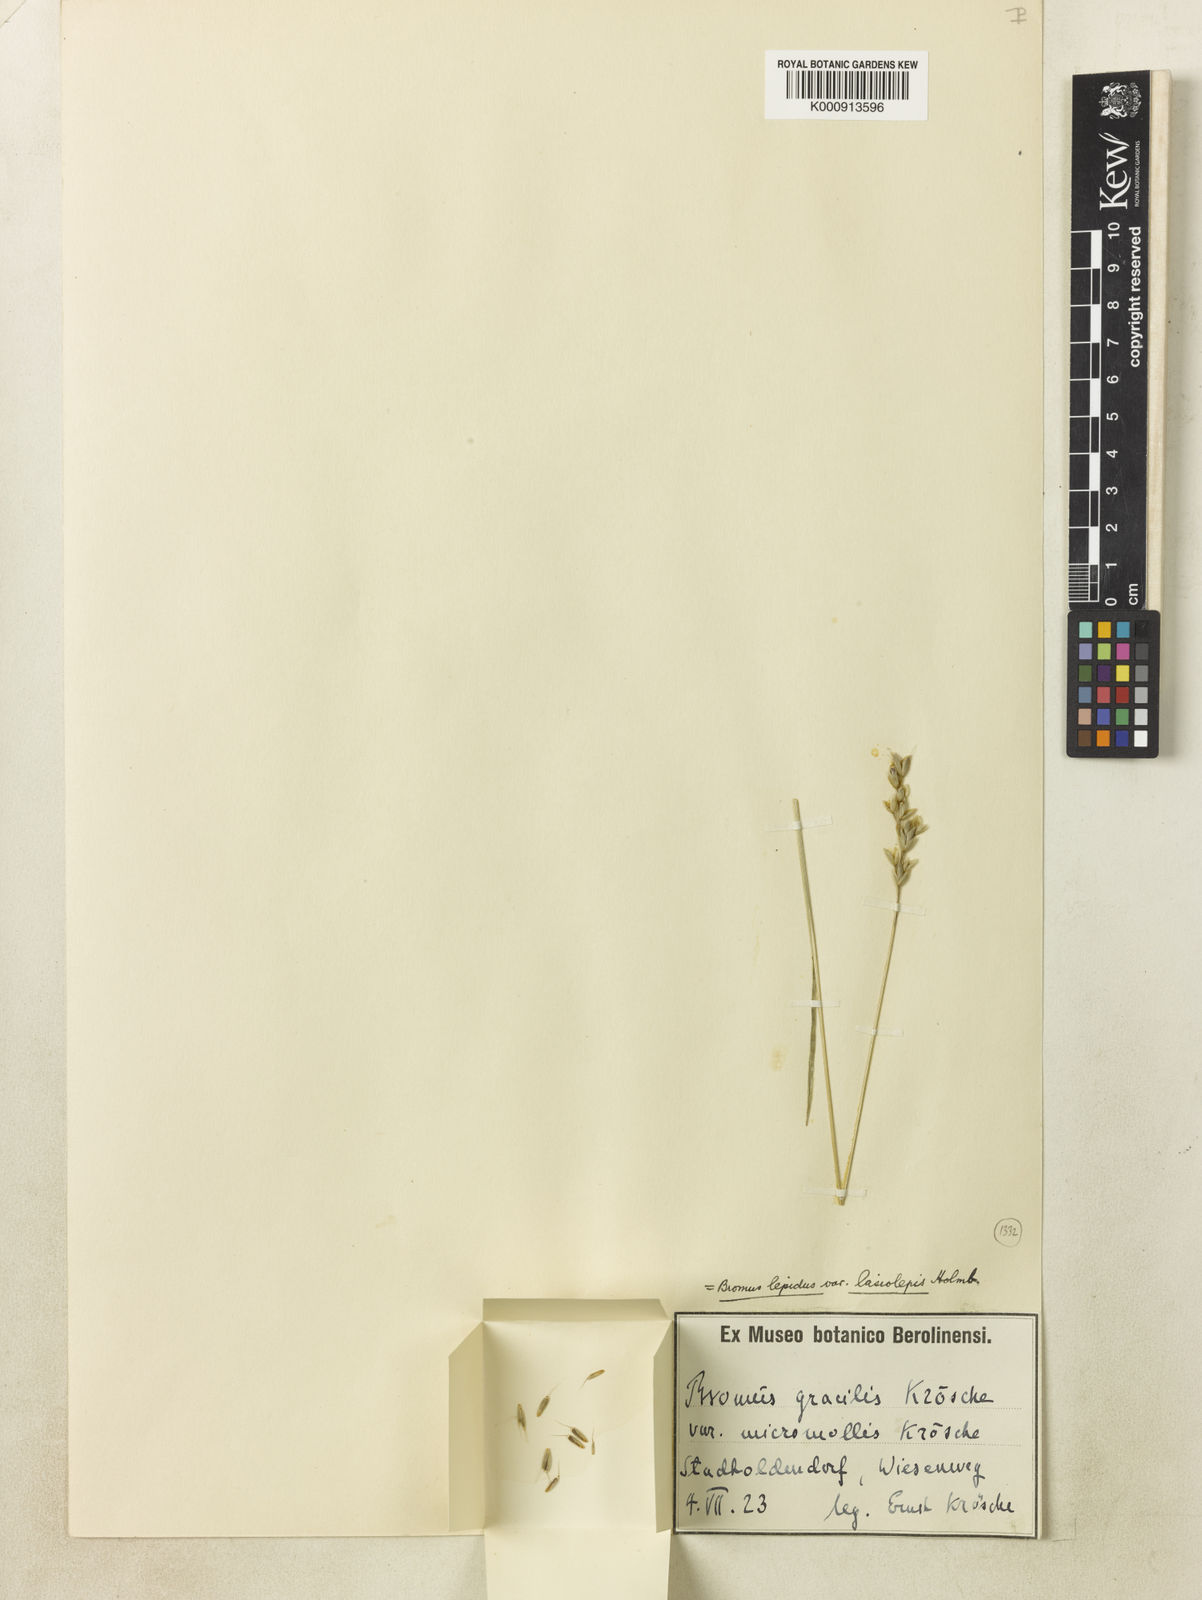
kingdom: Plantae
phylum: Tracheophyta
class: Liliopsida
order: Poales
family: Poaceae
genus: Bromus
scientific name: Bromus lepidus
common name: Slender soft-brome
